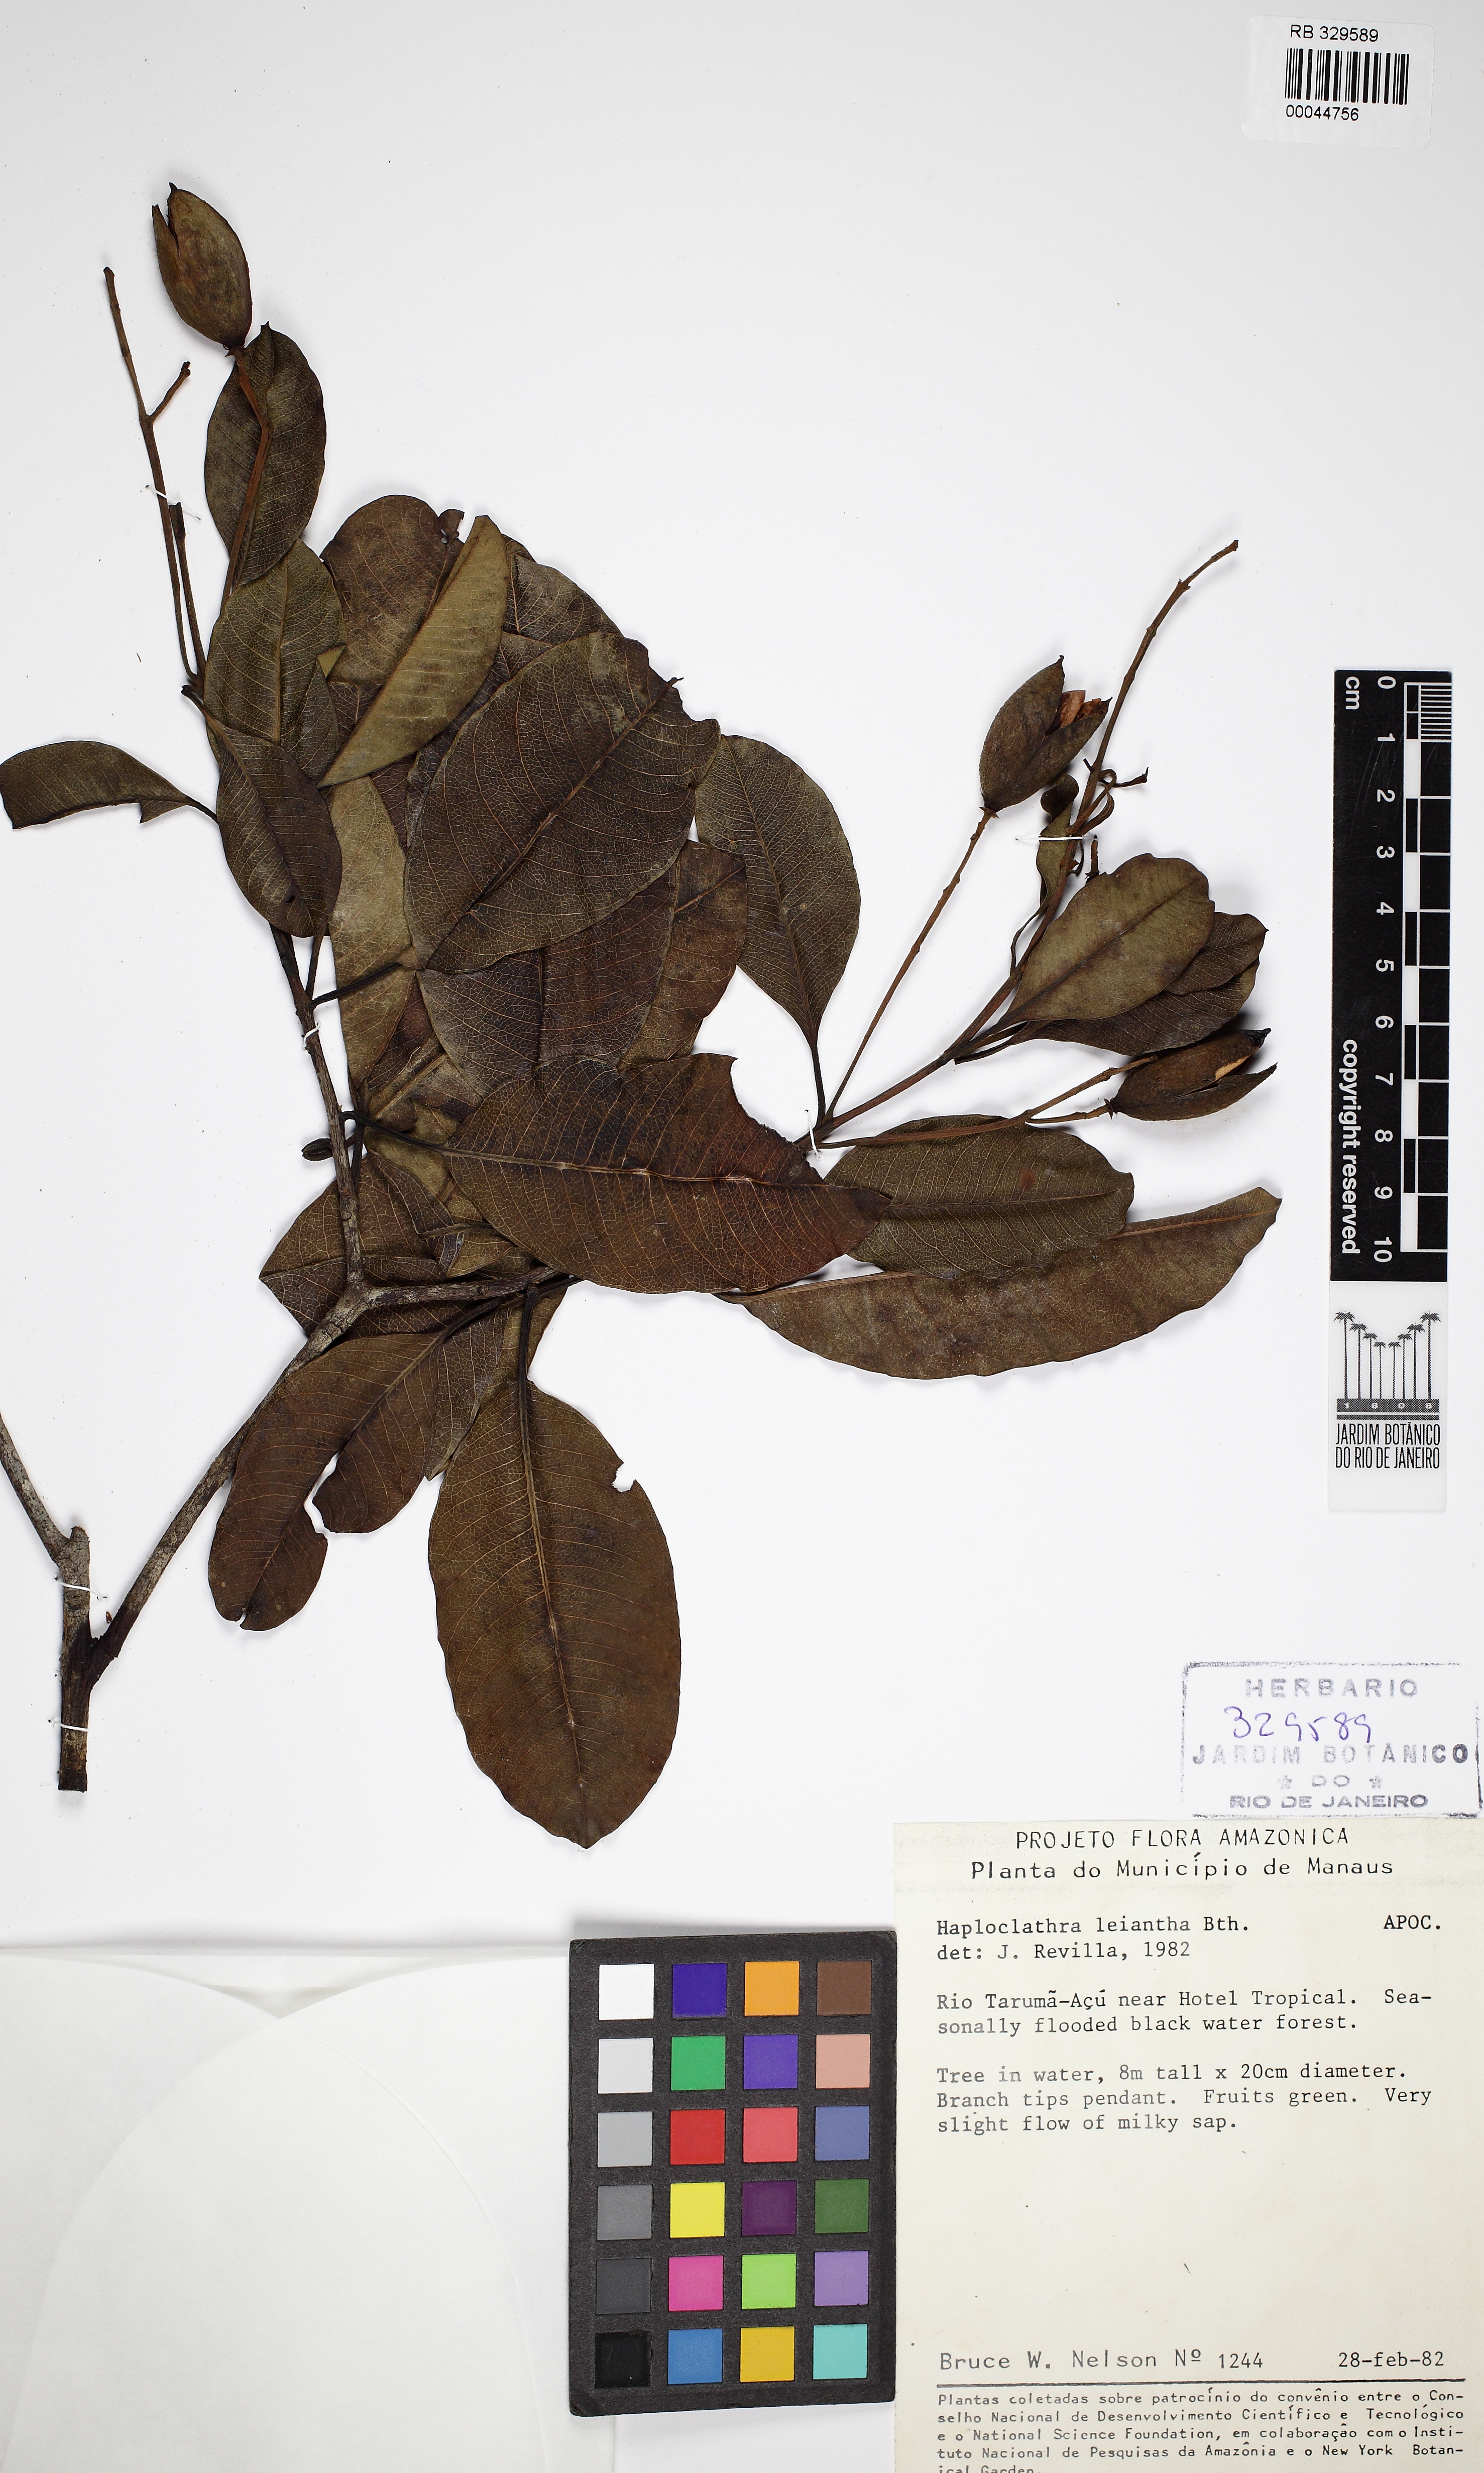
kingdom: Plantae
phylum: Tracheophyta
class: Magnoliopsida
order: Malpighiales
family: Calophyllaceae
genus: Haploclathra
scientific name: Haploclathra leiantha
